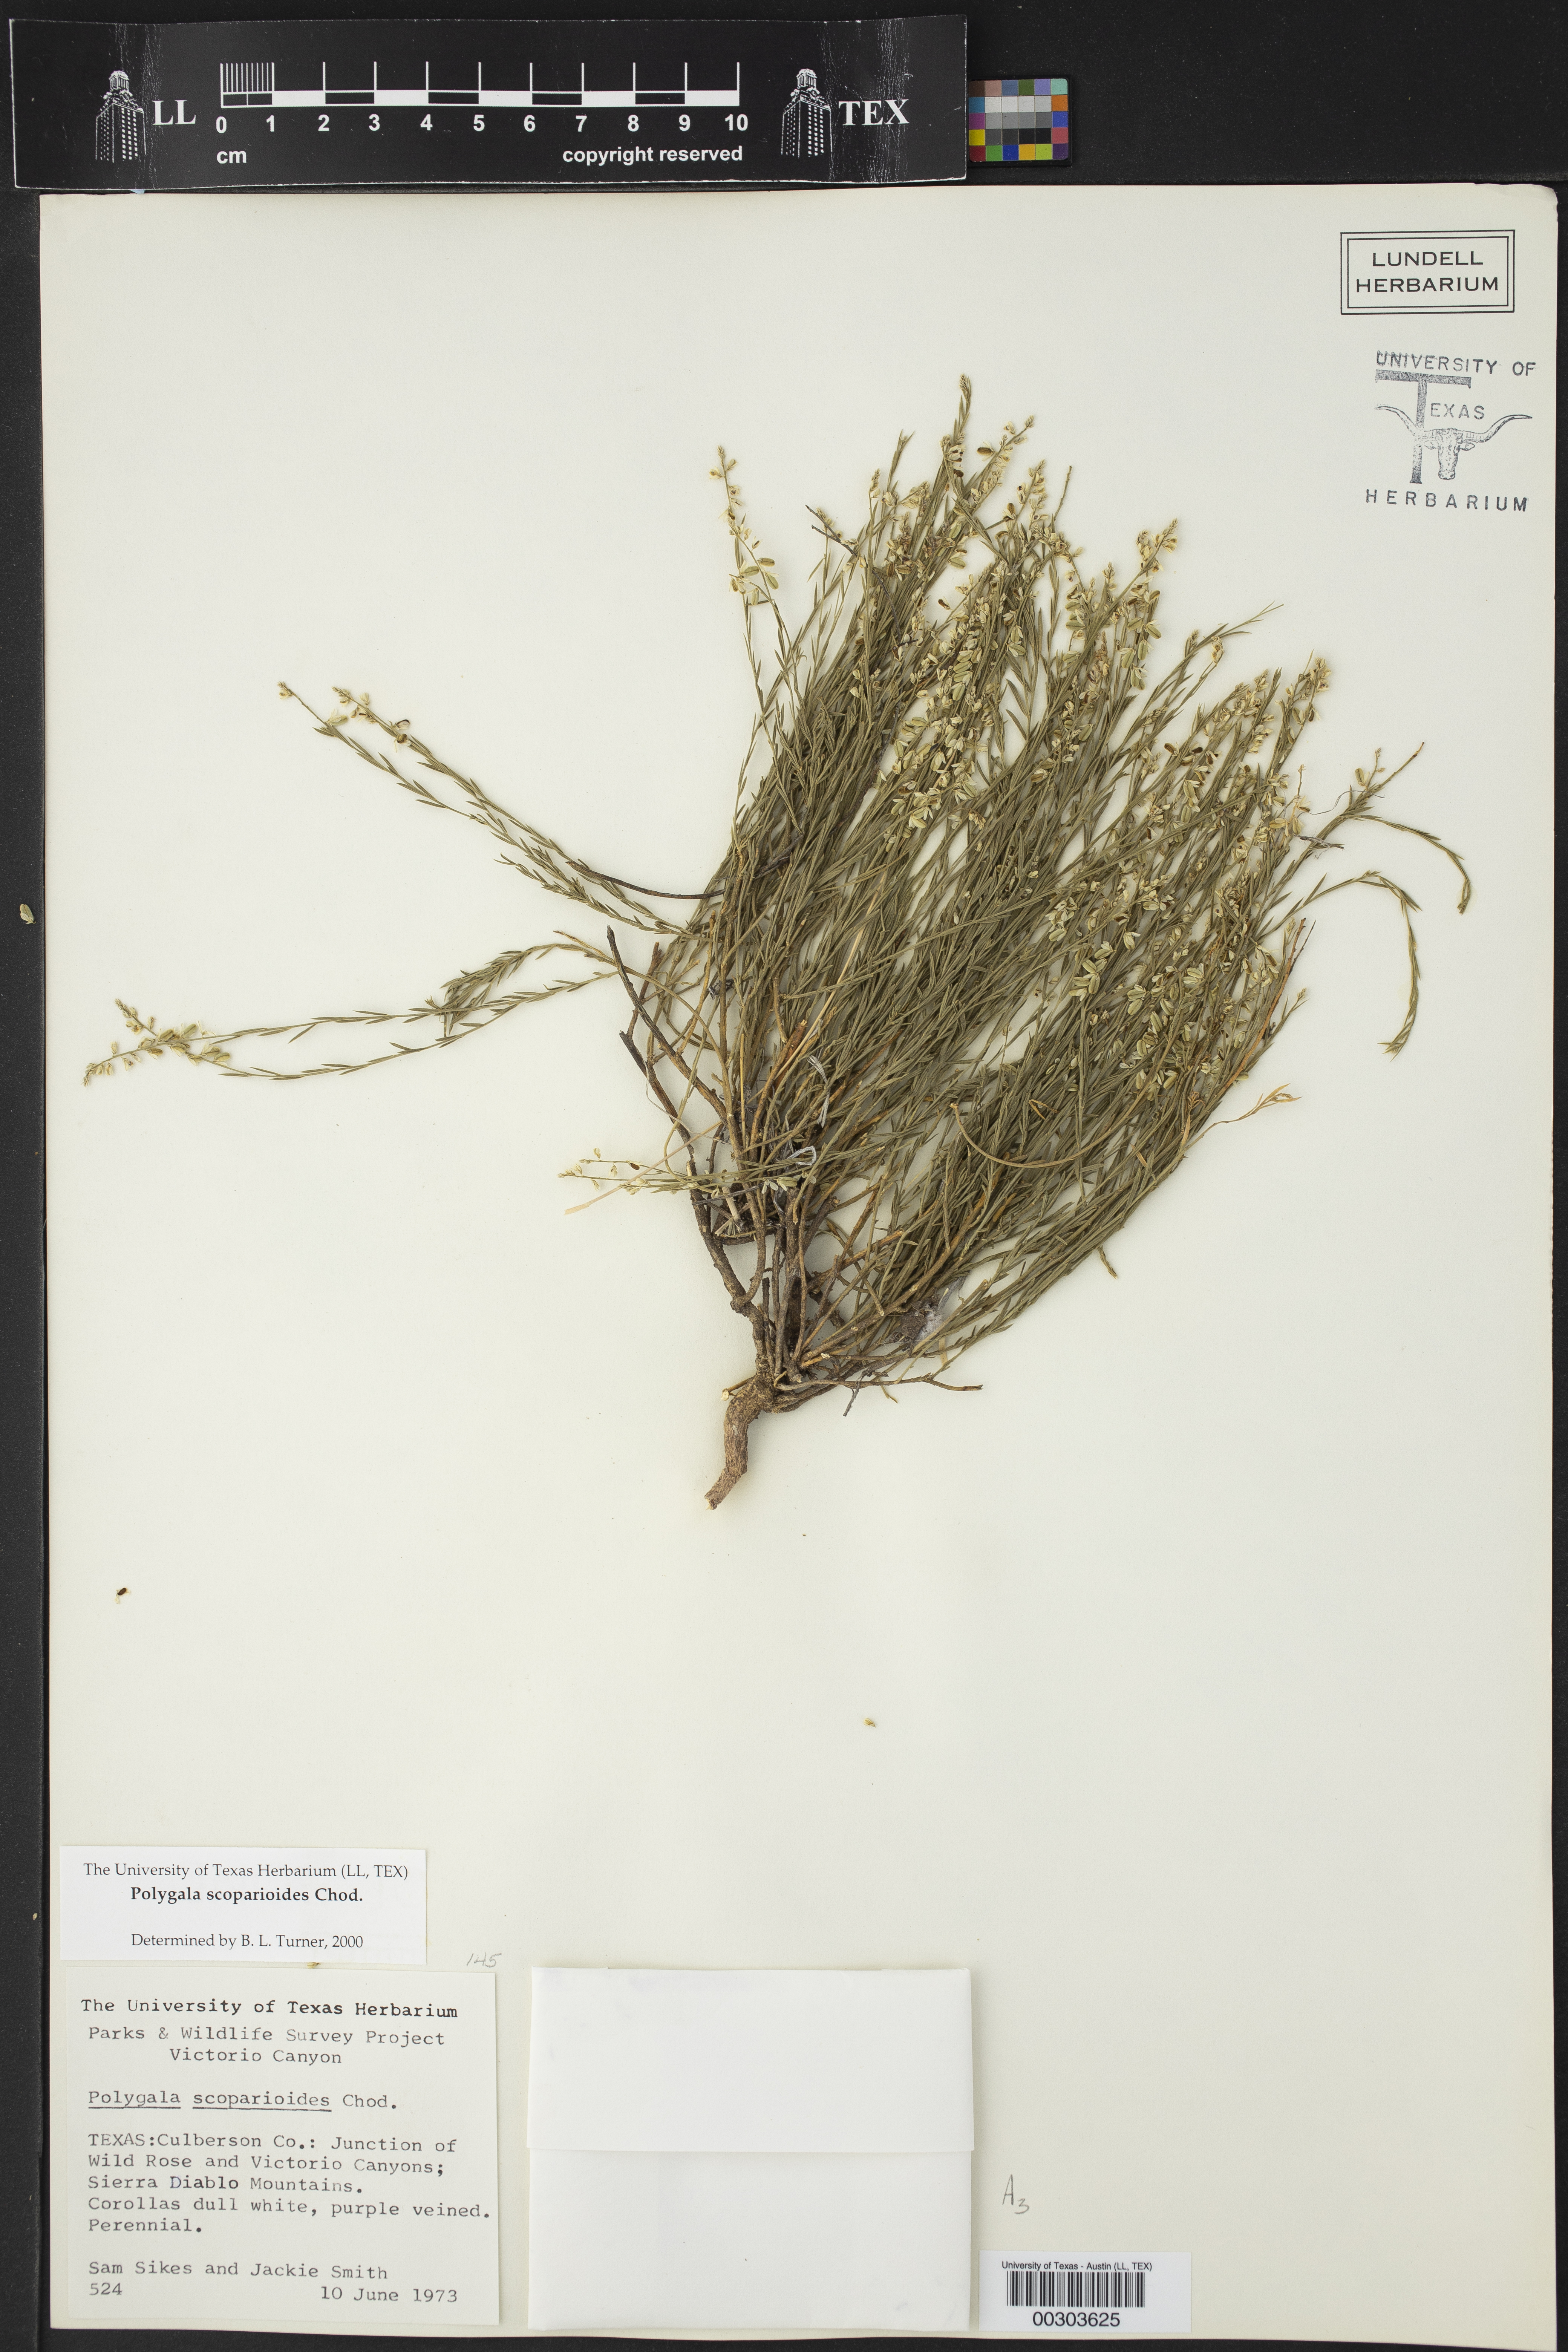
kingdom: Plantae
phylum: Tracheophyta
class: Magnoliopsida
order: Fabales
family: Polygalaceae
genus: Polygala
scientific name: Polygala scoparioides
